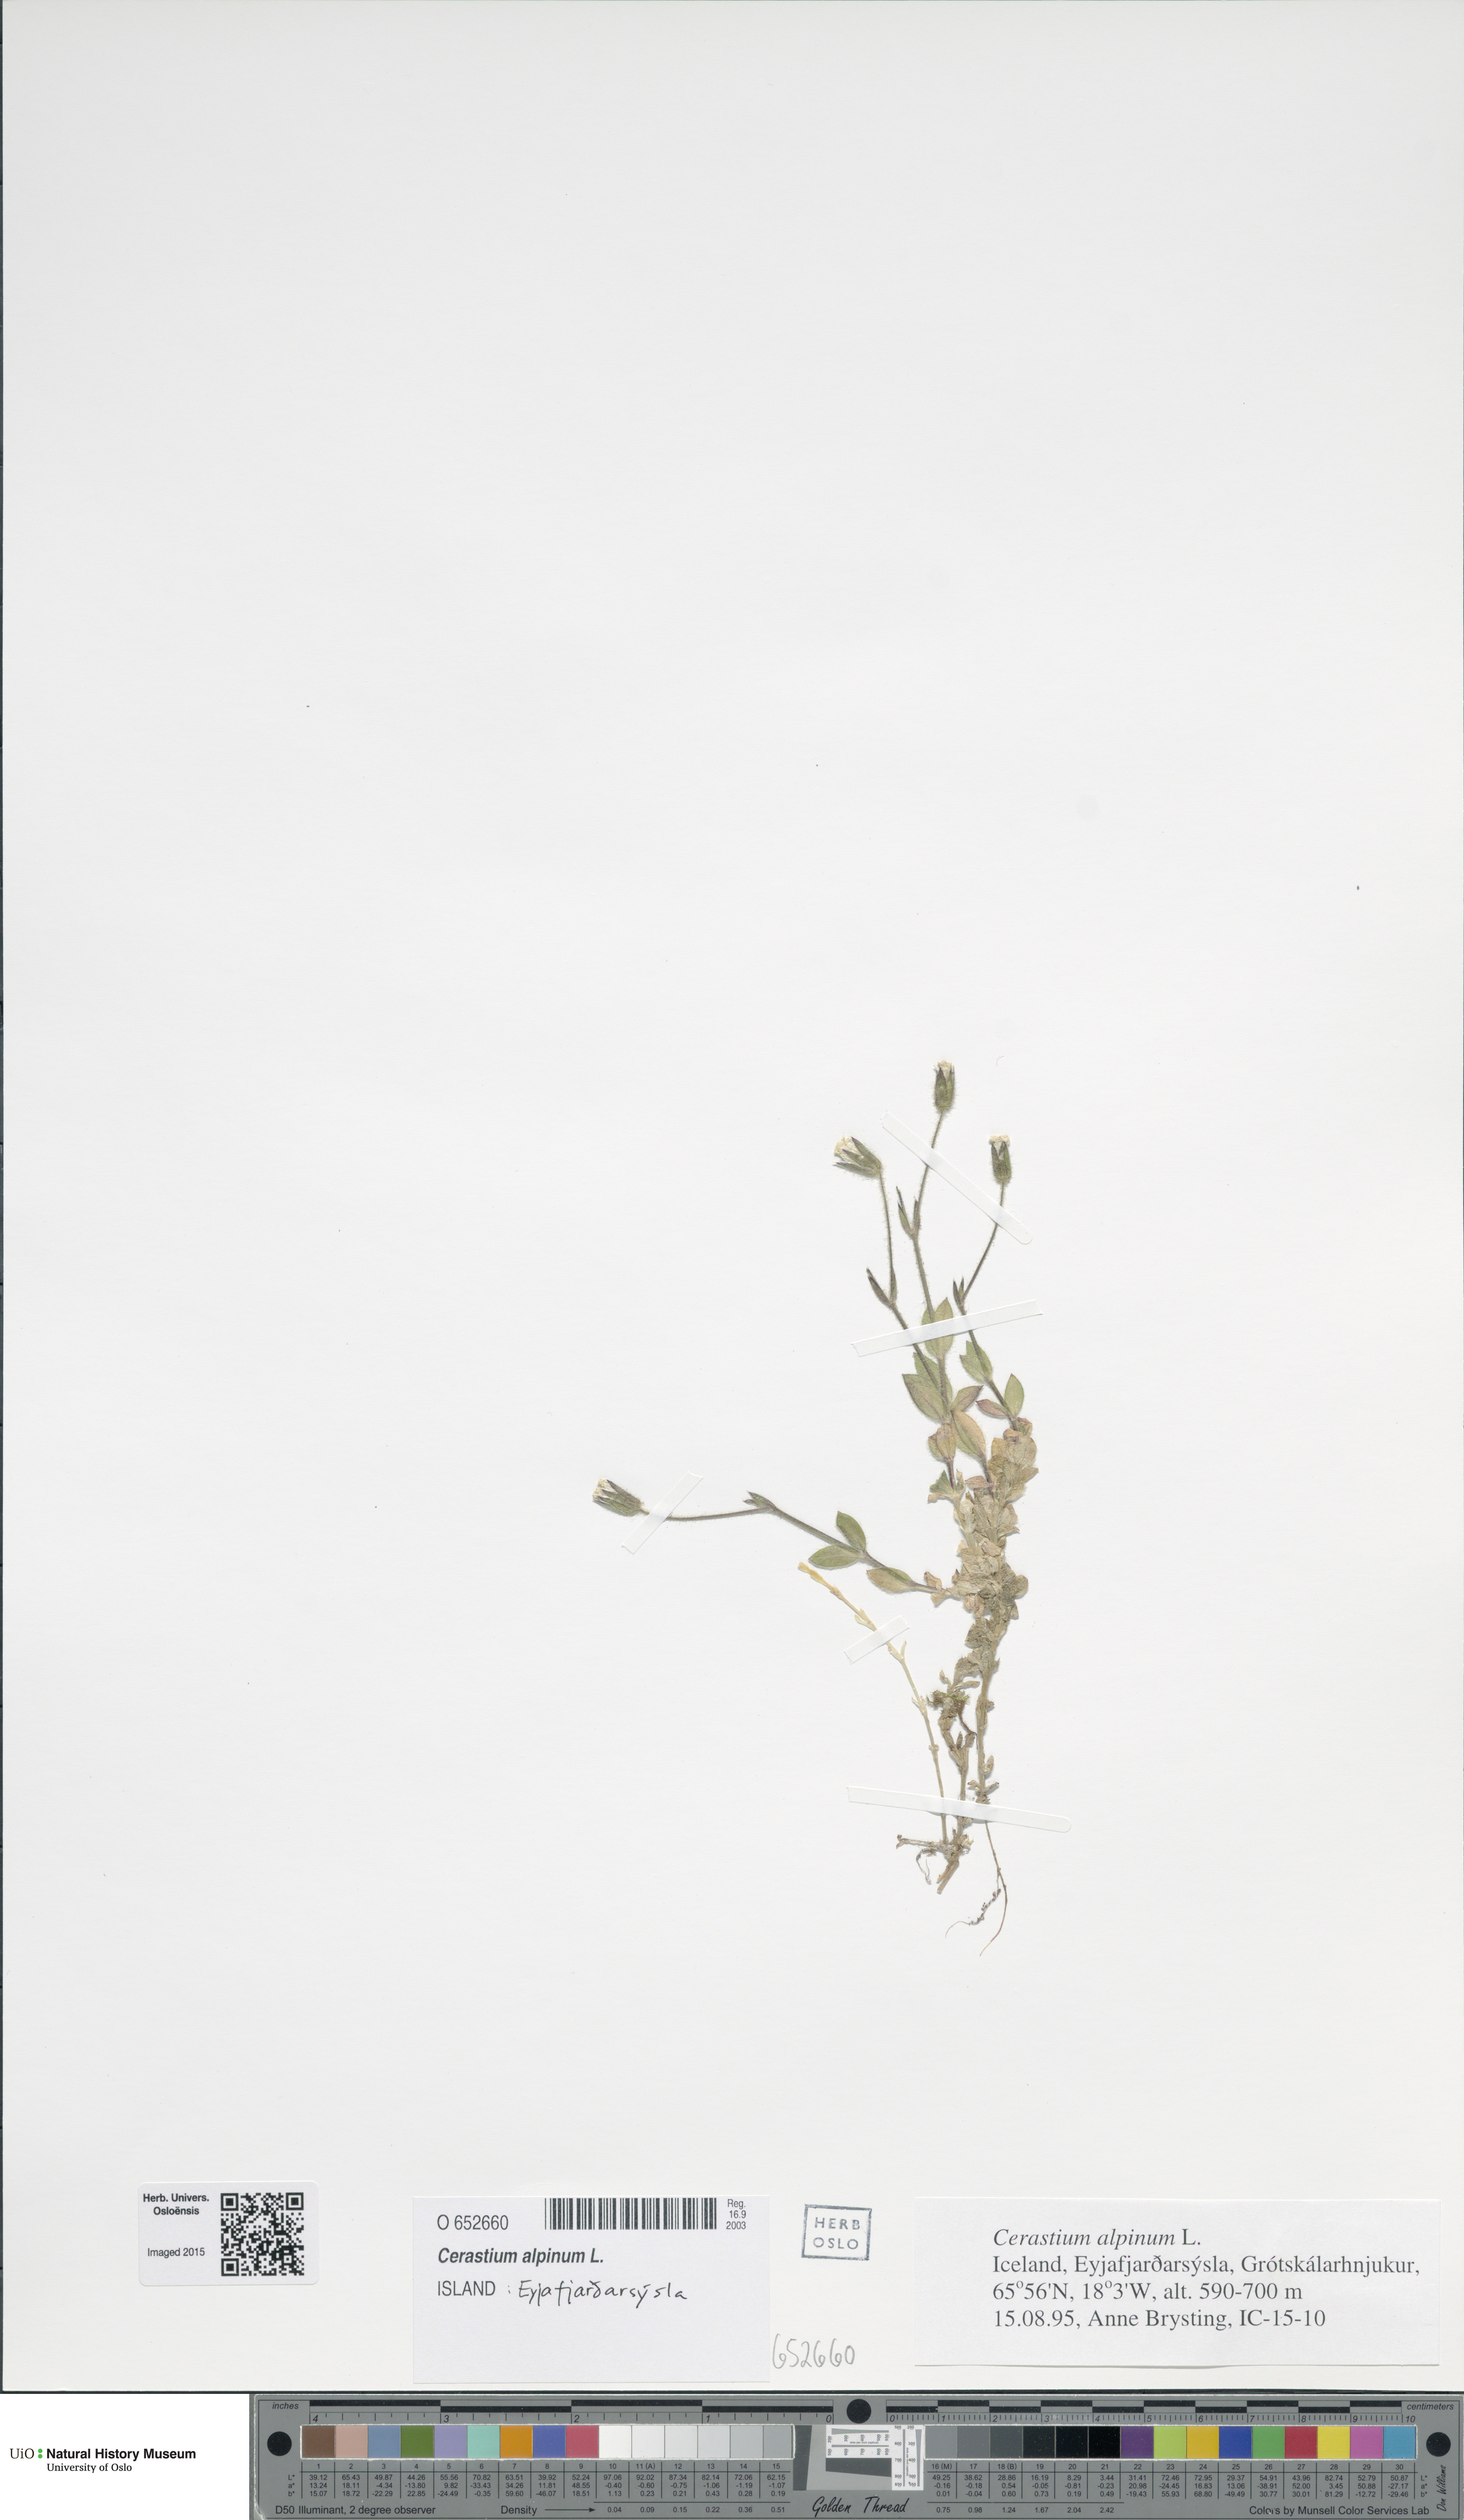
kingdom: Plantae
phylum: Tracheophyta
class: Magnoliopsida
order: Caryophyllales
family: Caryophyllaceae
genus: Cerastium
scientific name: Cerastium alpinum
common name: Alpine mouse-ear
